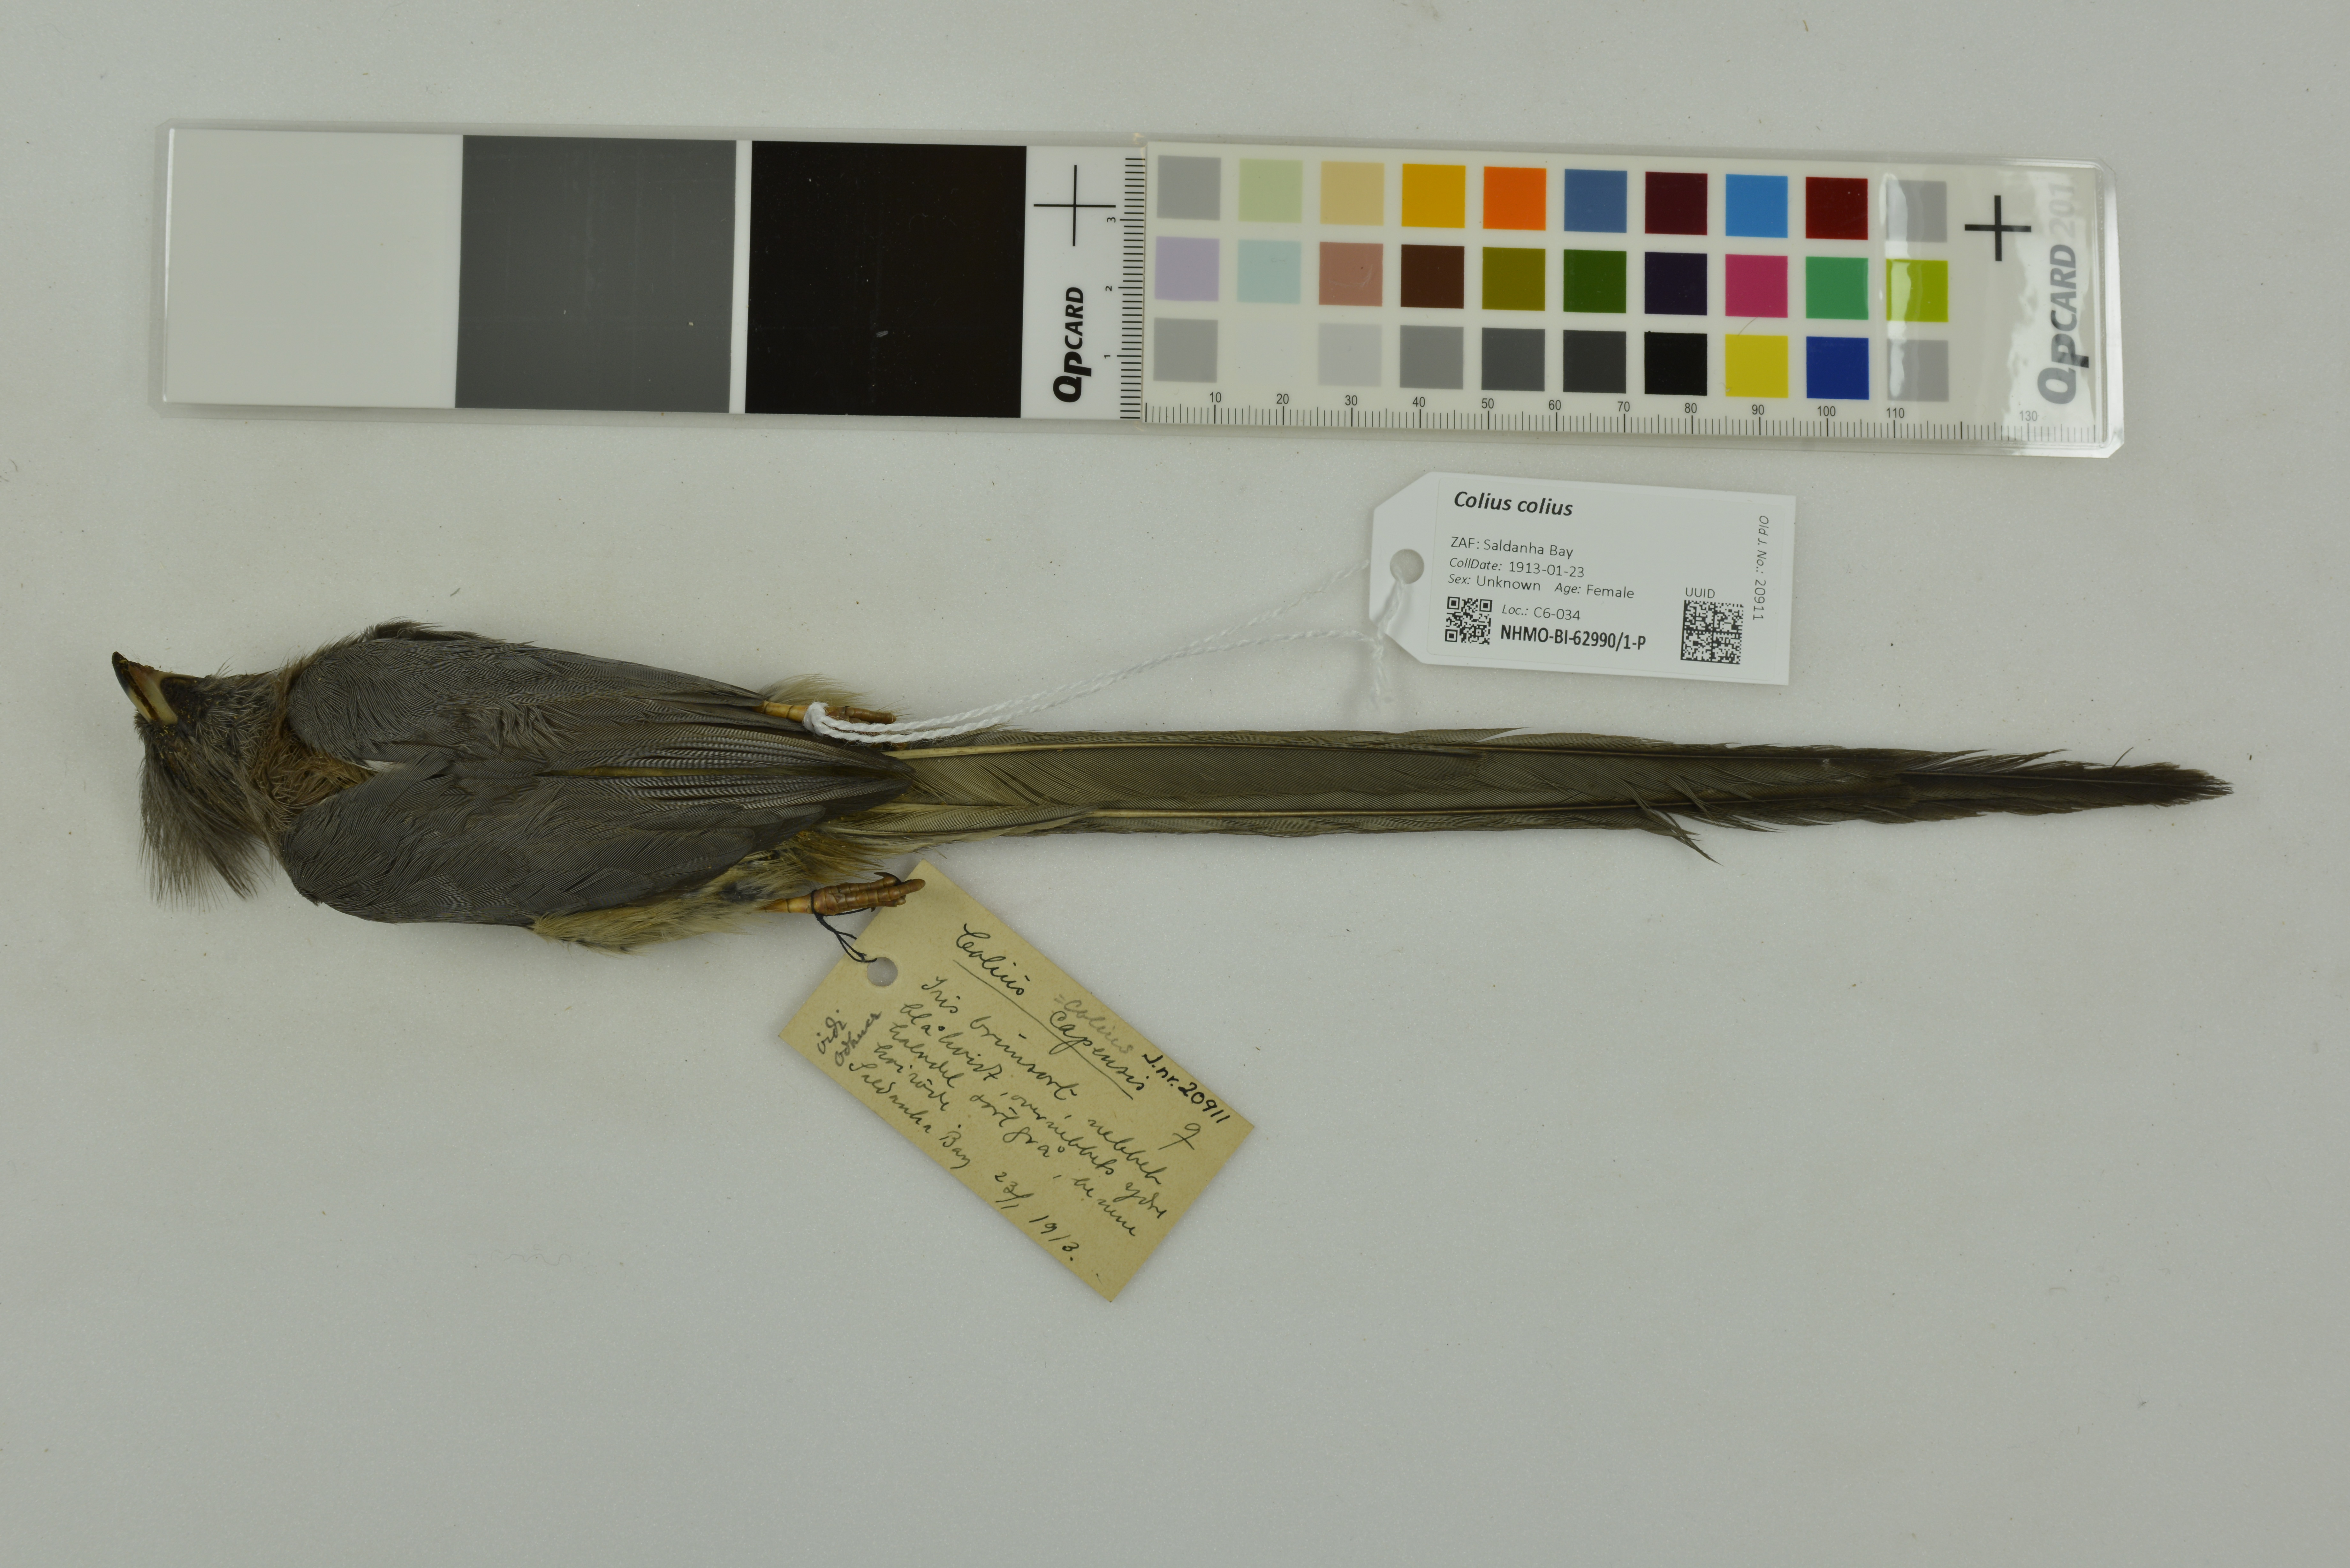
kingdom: Animalia
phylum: Chordata
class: Aves
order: Coliiformes
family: Coliidae
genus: Colius
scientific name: Colius colius
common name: White-backed mousebird
